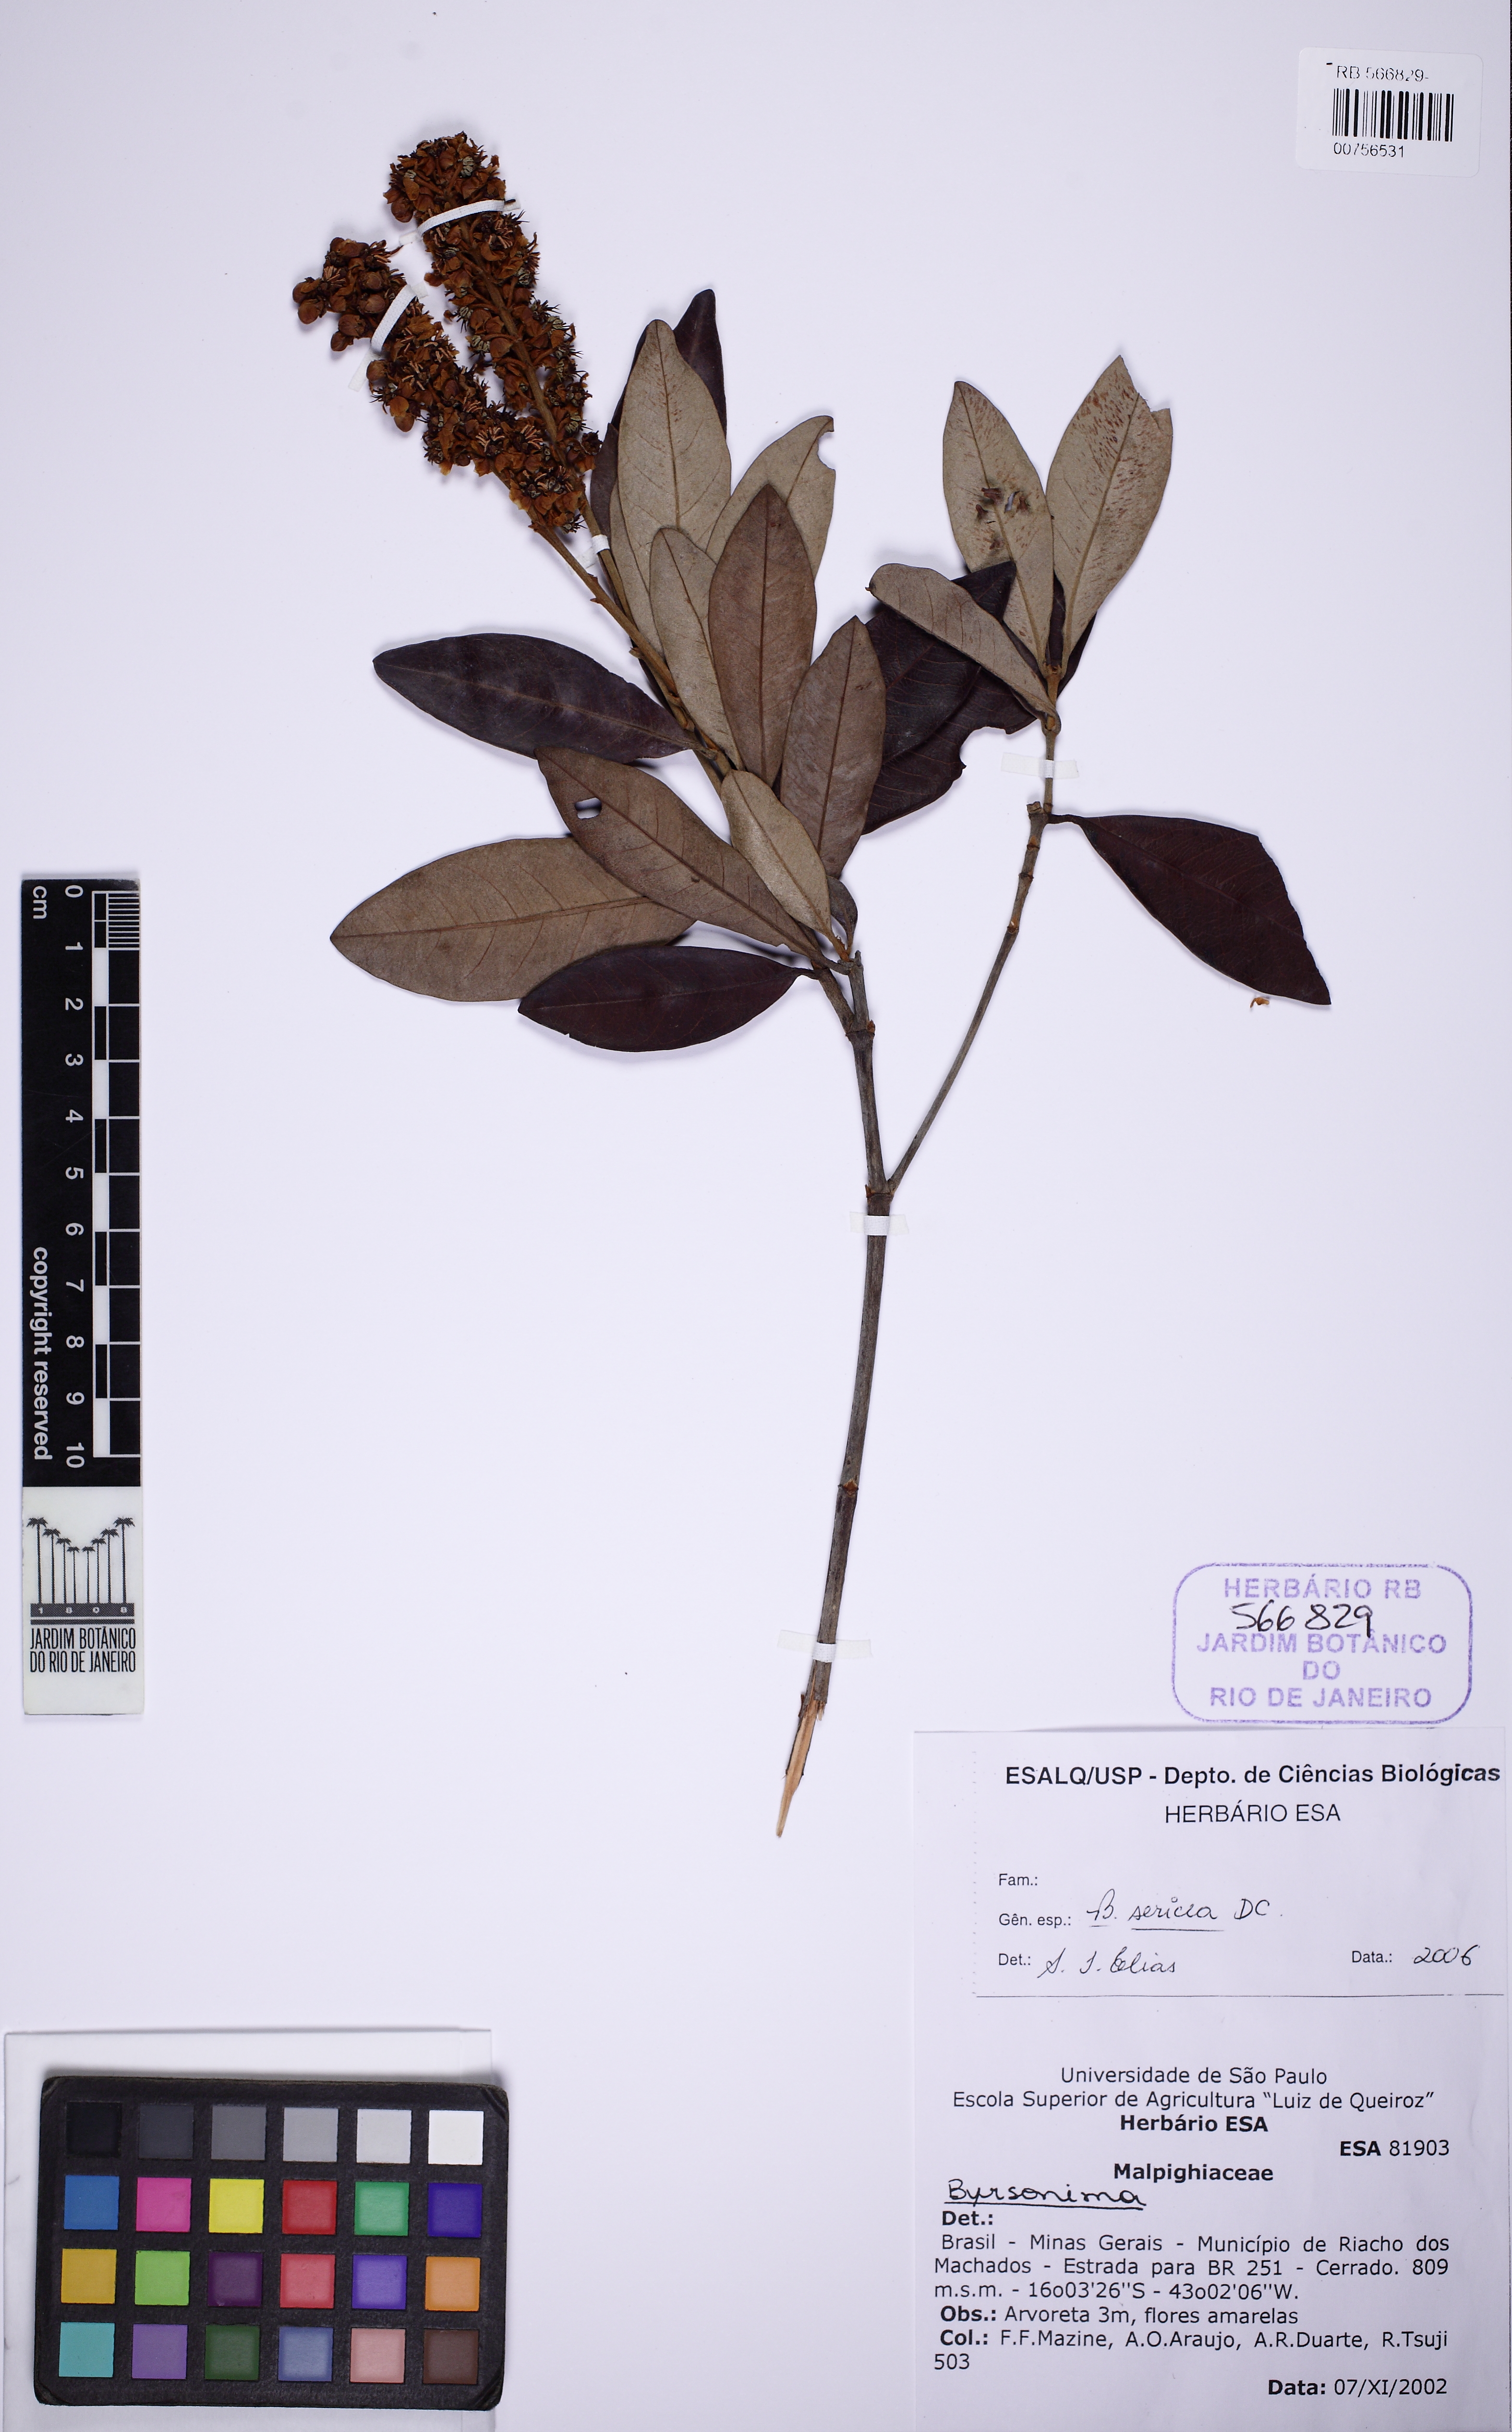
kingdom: Plantae
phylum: Tracheophyta
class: Magnoliopsida
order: Malpighiales
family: Malpighiaceae
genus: Byrsonima
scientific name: Byrsonima sericea
